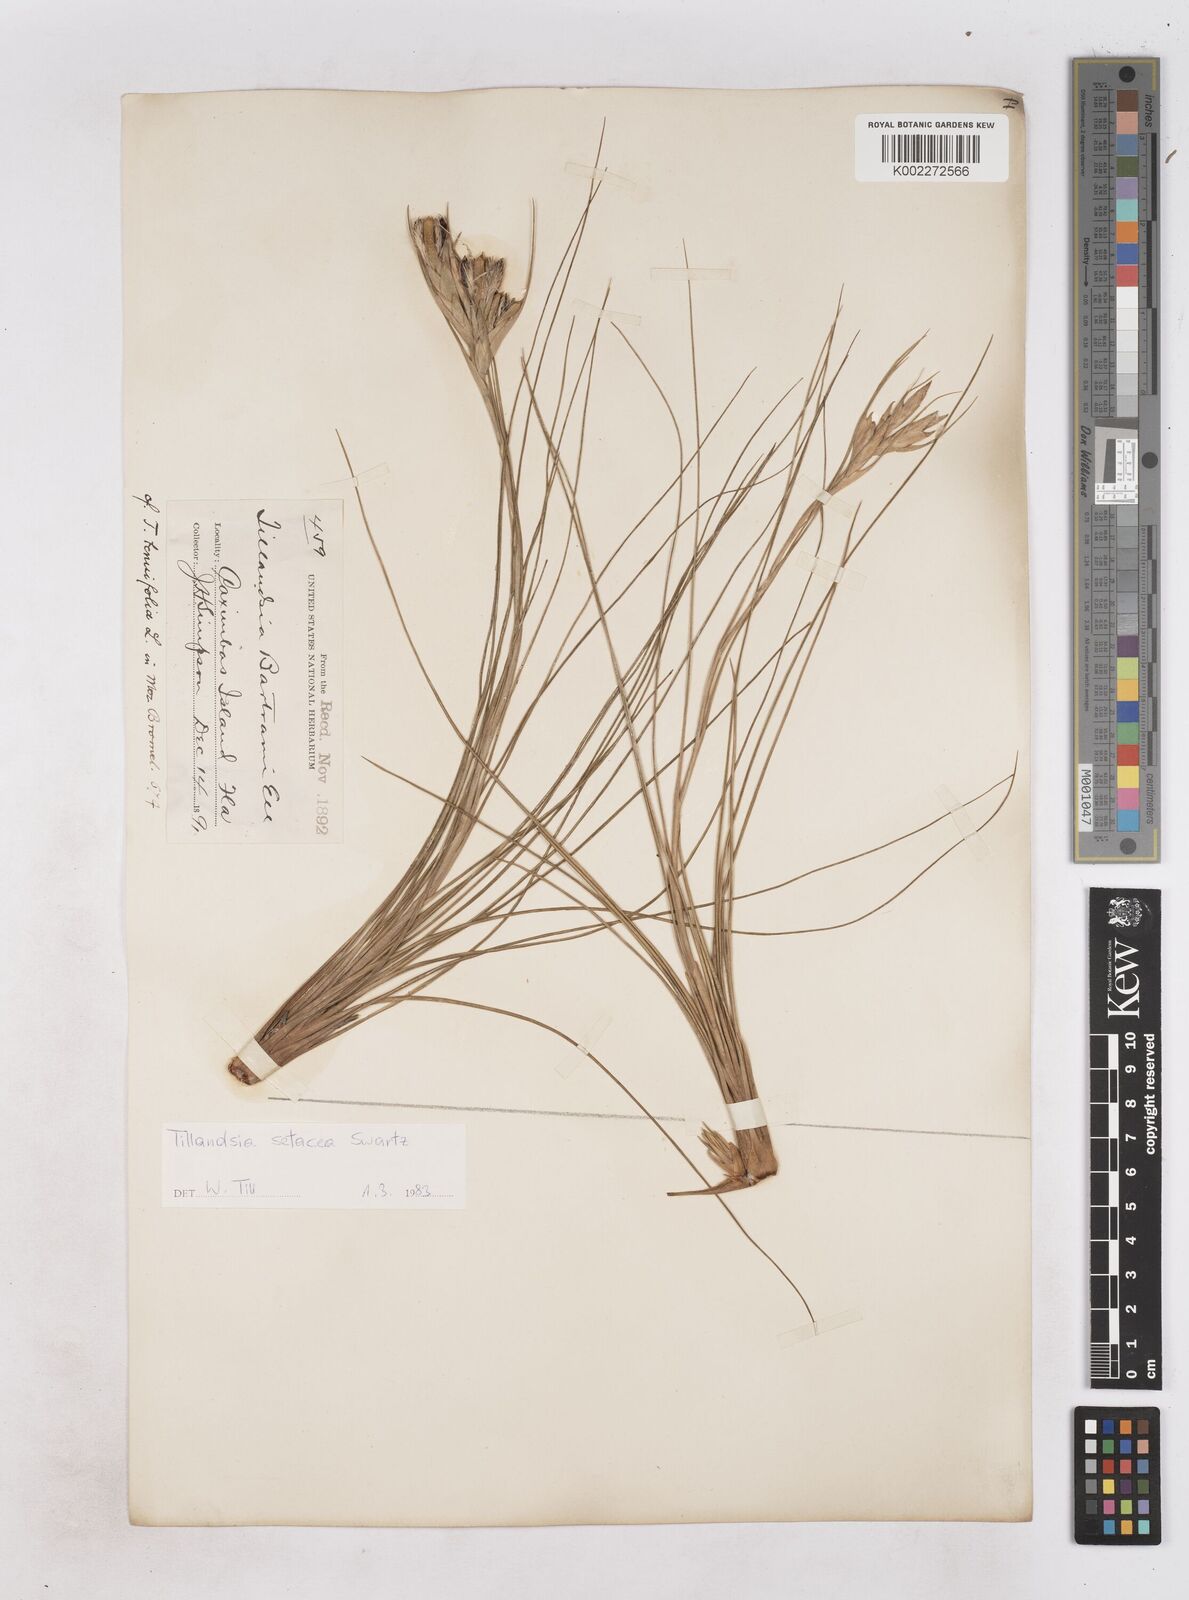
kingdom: Plantae
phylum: Tracheophyta
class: Liliopsida
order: Poales
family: Bromeliaceae
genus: Tillandsia
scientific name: Tillandsia
